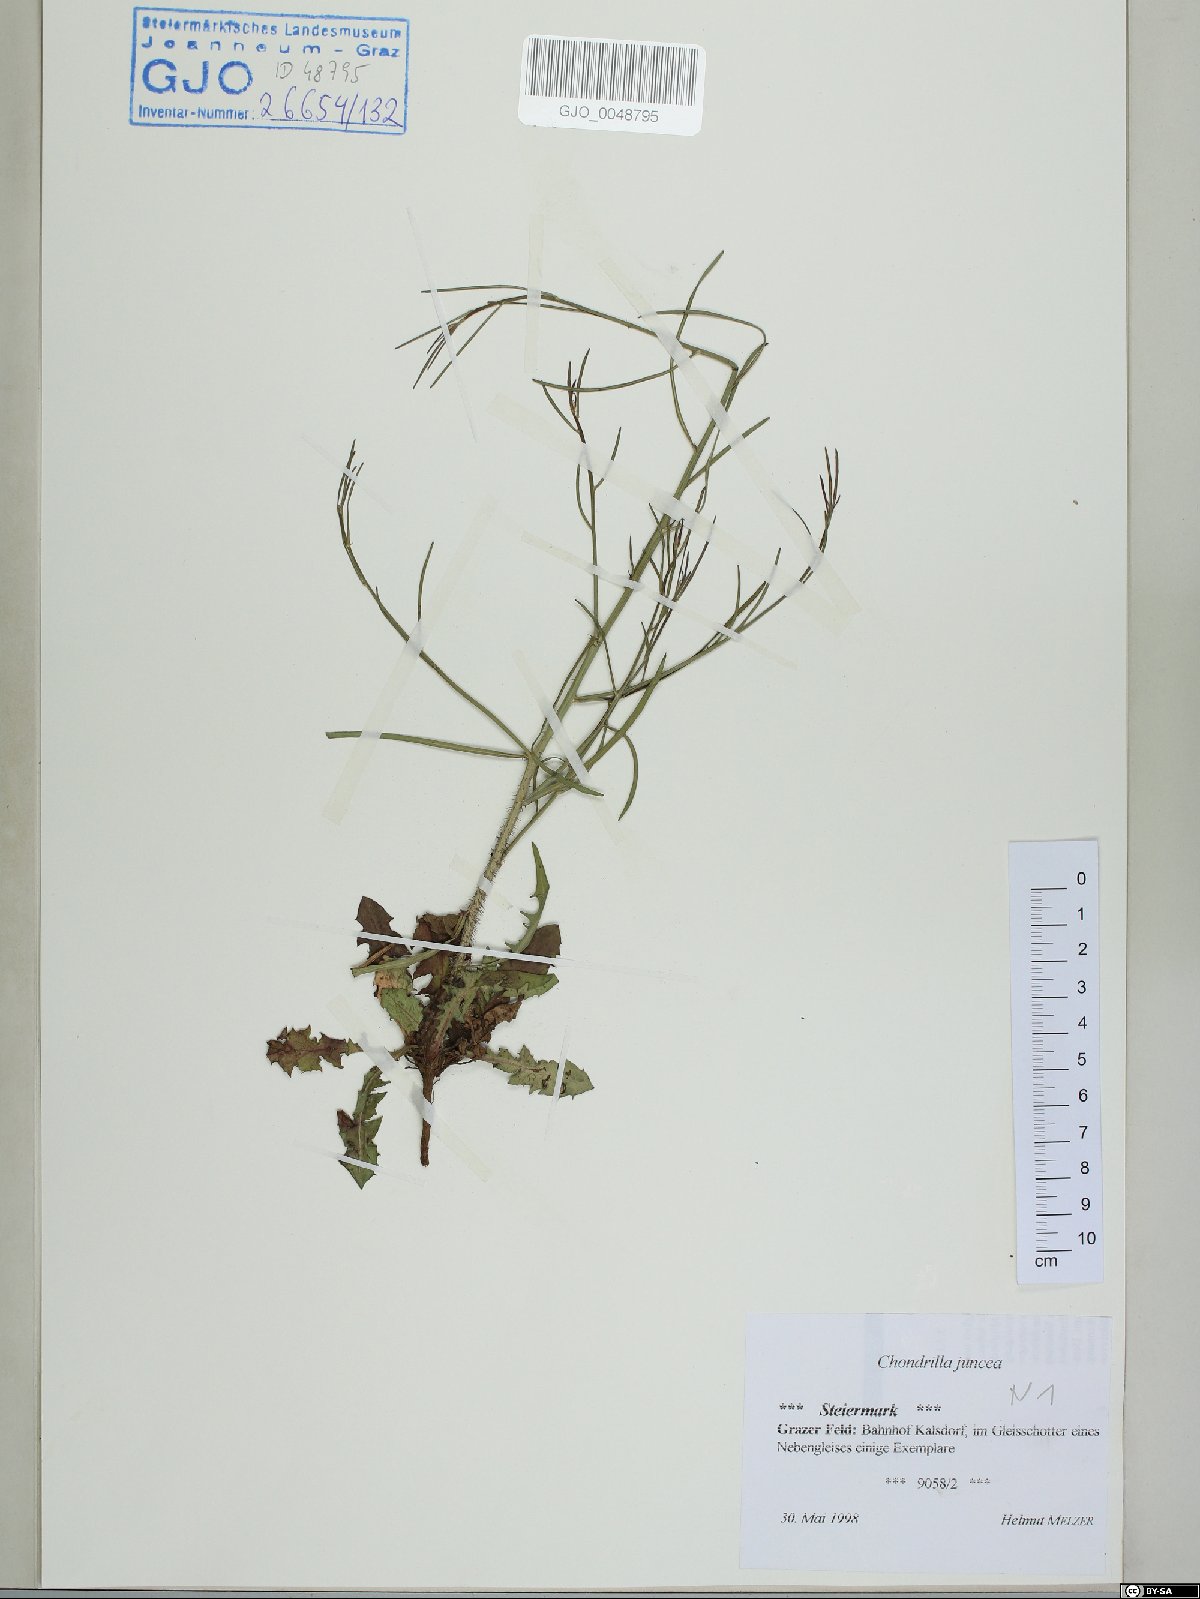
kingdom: Plantae
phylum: Tracheophyta
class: Magnoliopsida
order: Asterales
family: Asteraceae
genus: Chondrilla
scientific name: Chondrilla juncea
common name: Skeleton weed
